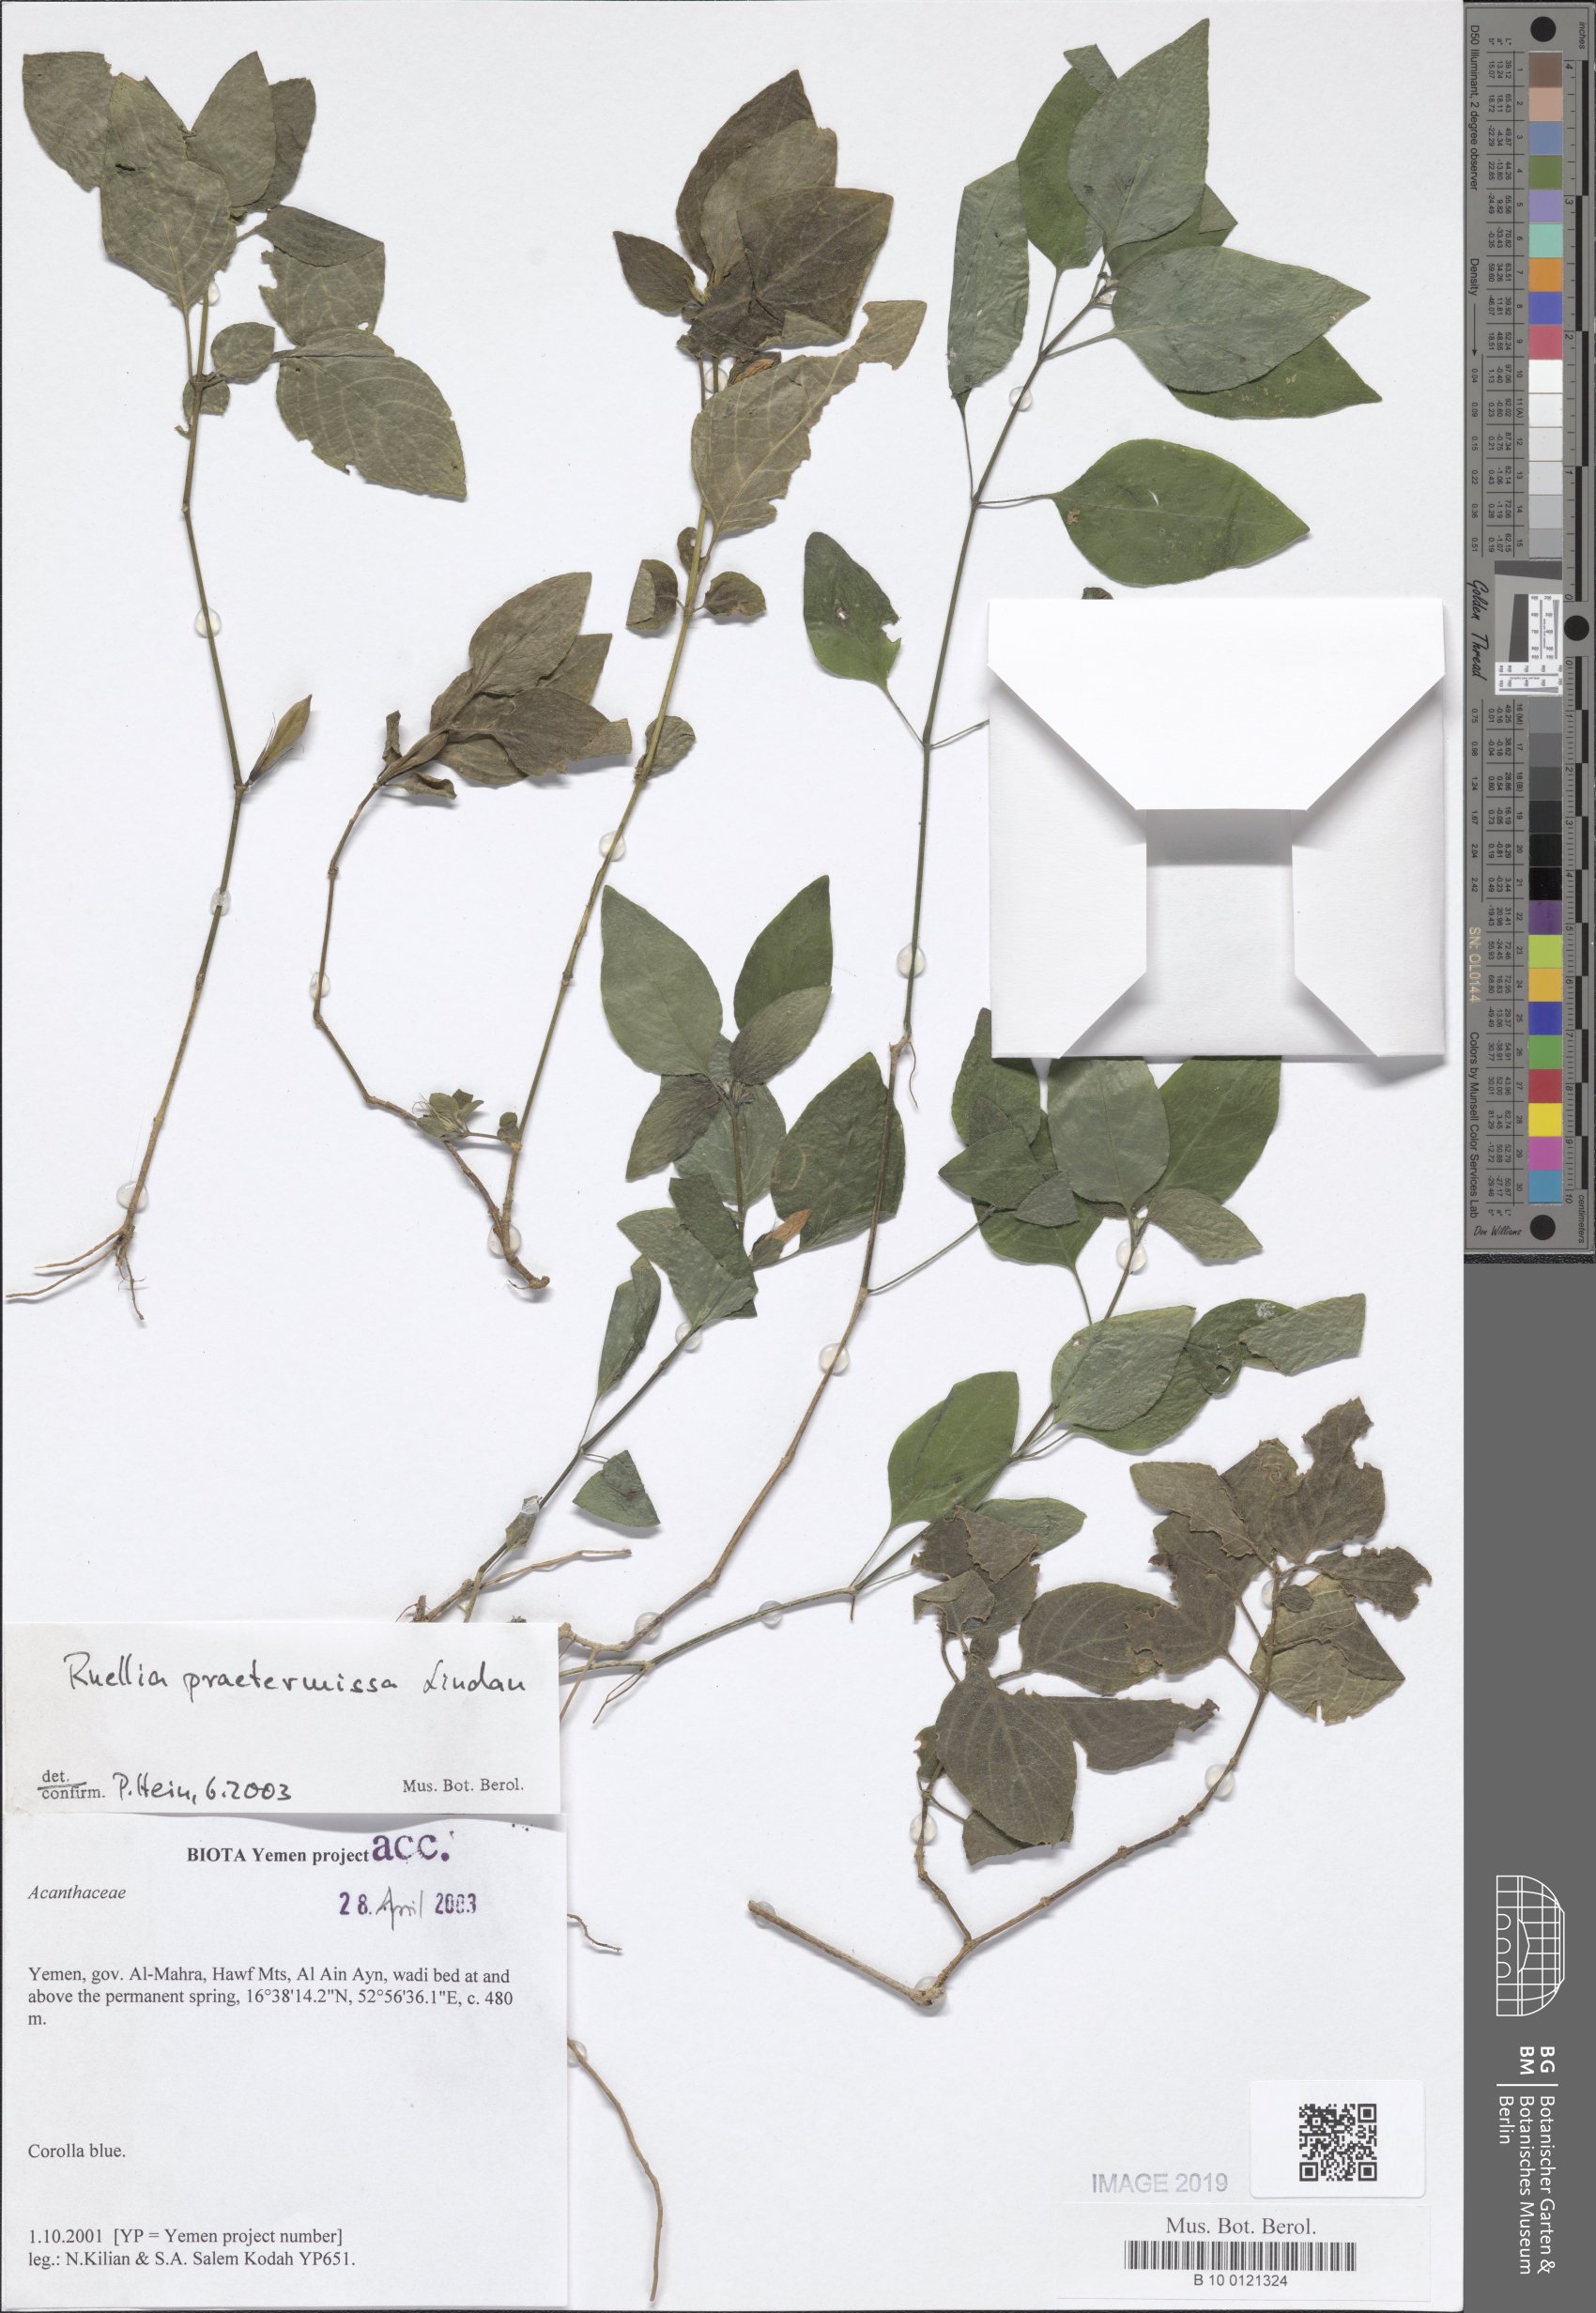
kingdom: Plantae
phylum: Tracheophyta
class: Magnoliopsida
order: Lamiales
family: Acanthaceae
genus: Ruellia
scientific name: Ruellia praetermissa
